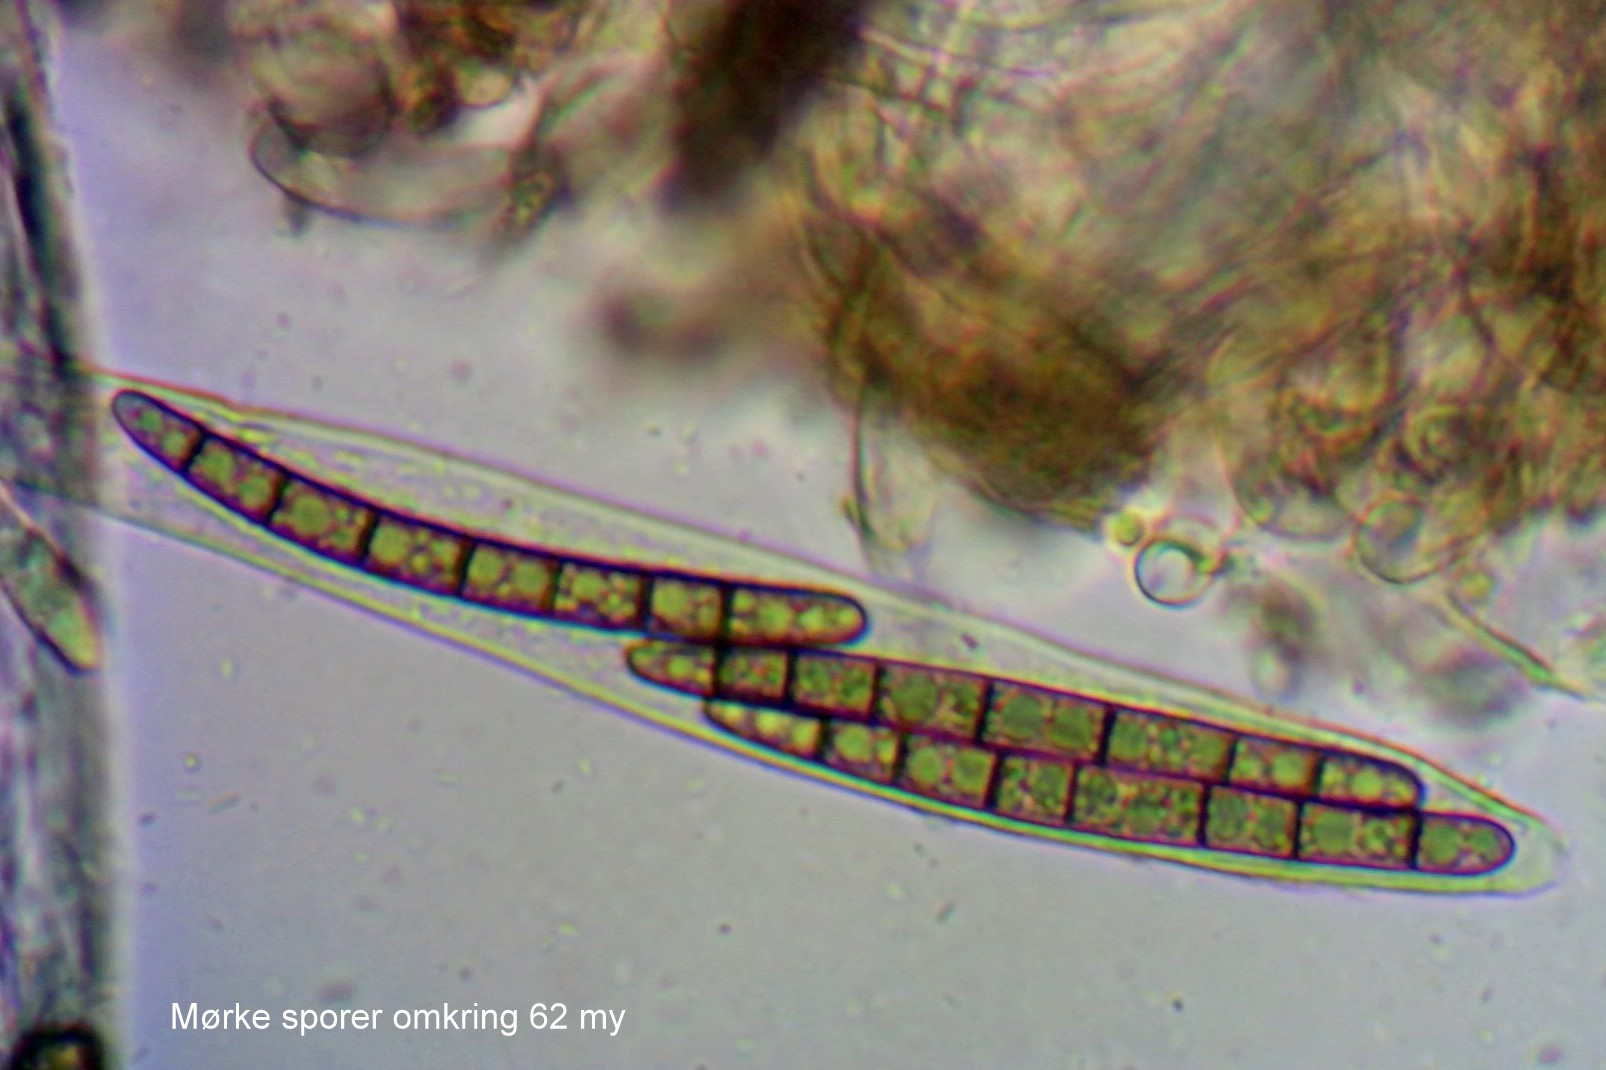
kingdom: Fungi
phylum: Ascomycota
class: Geoglossomycetes
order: Geoglossales
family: Geoglossaceae
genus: Hemileucoglossum
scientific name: Hemileucoglossum elongatum
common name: småsporet jordtunge
